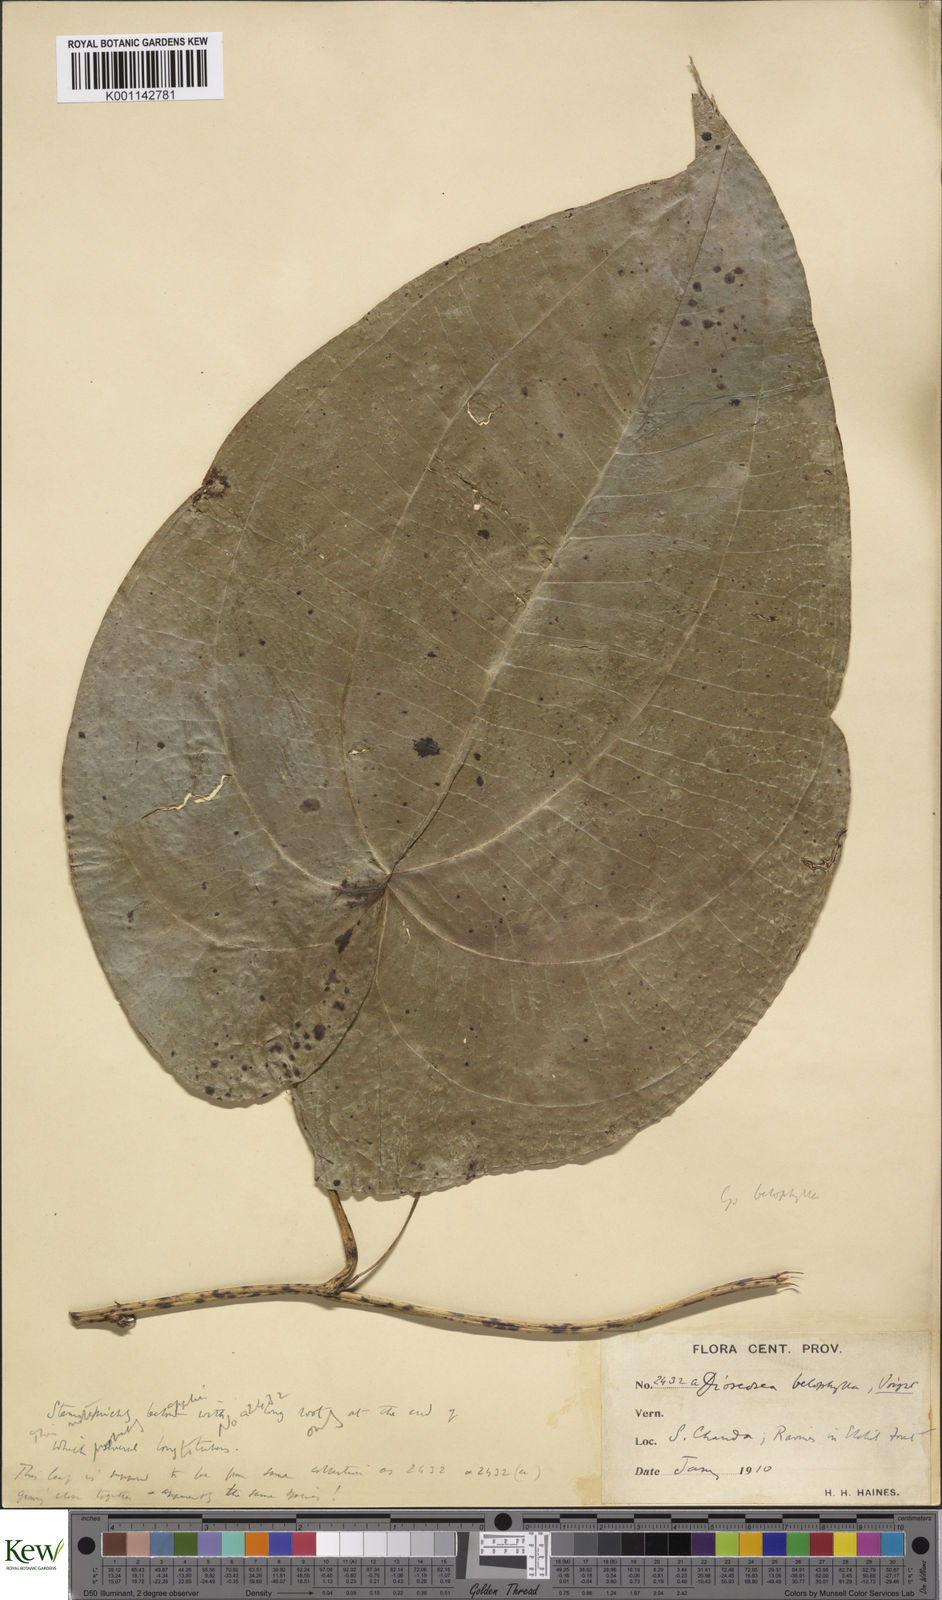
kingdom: Plantae
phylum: Tracheophyta
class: Liliopsida
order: Dioscoreales
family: Dioscoreaceae
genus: Dioscorea
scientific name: Dioscorea belophylla
